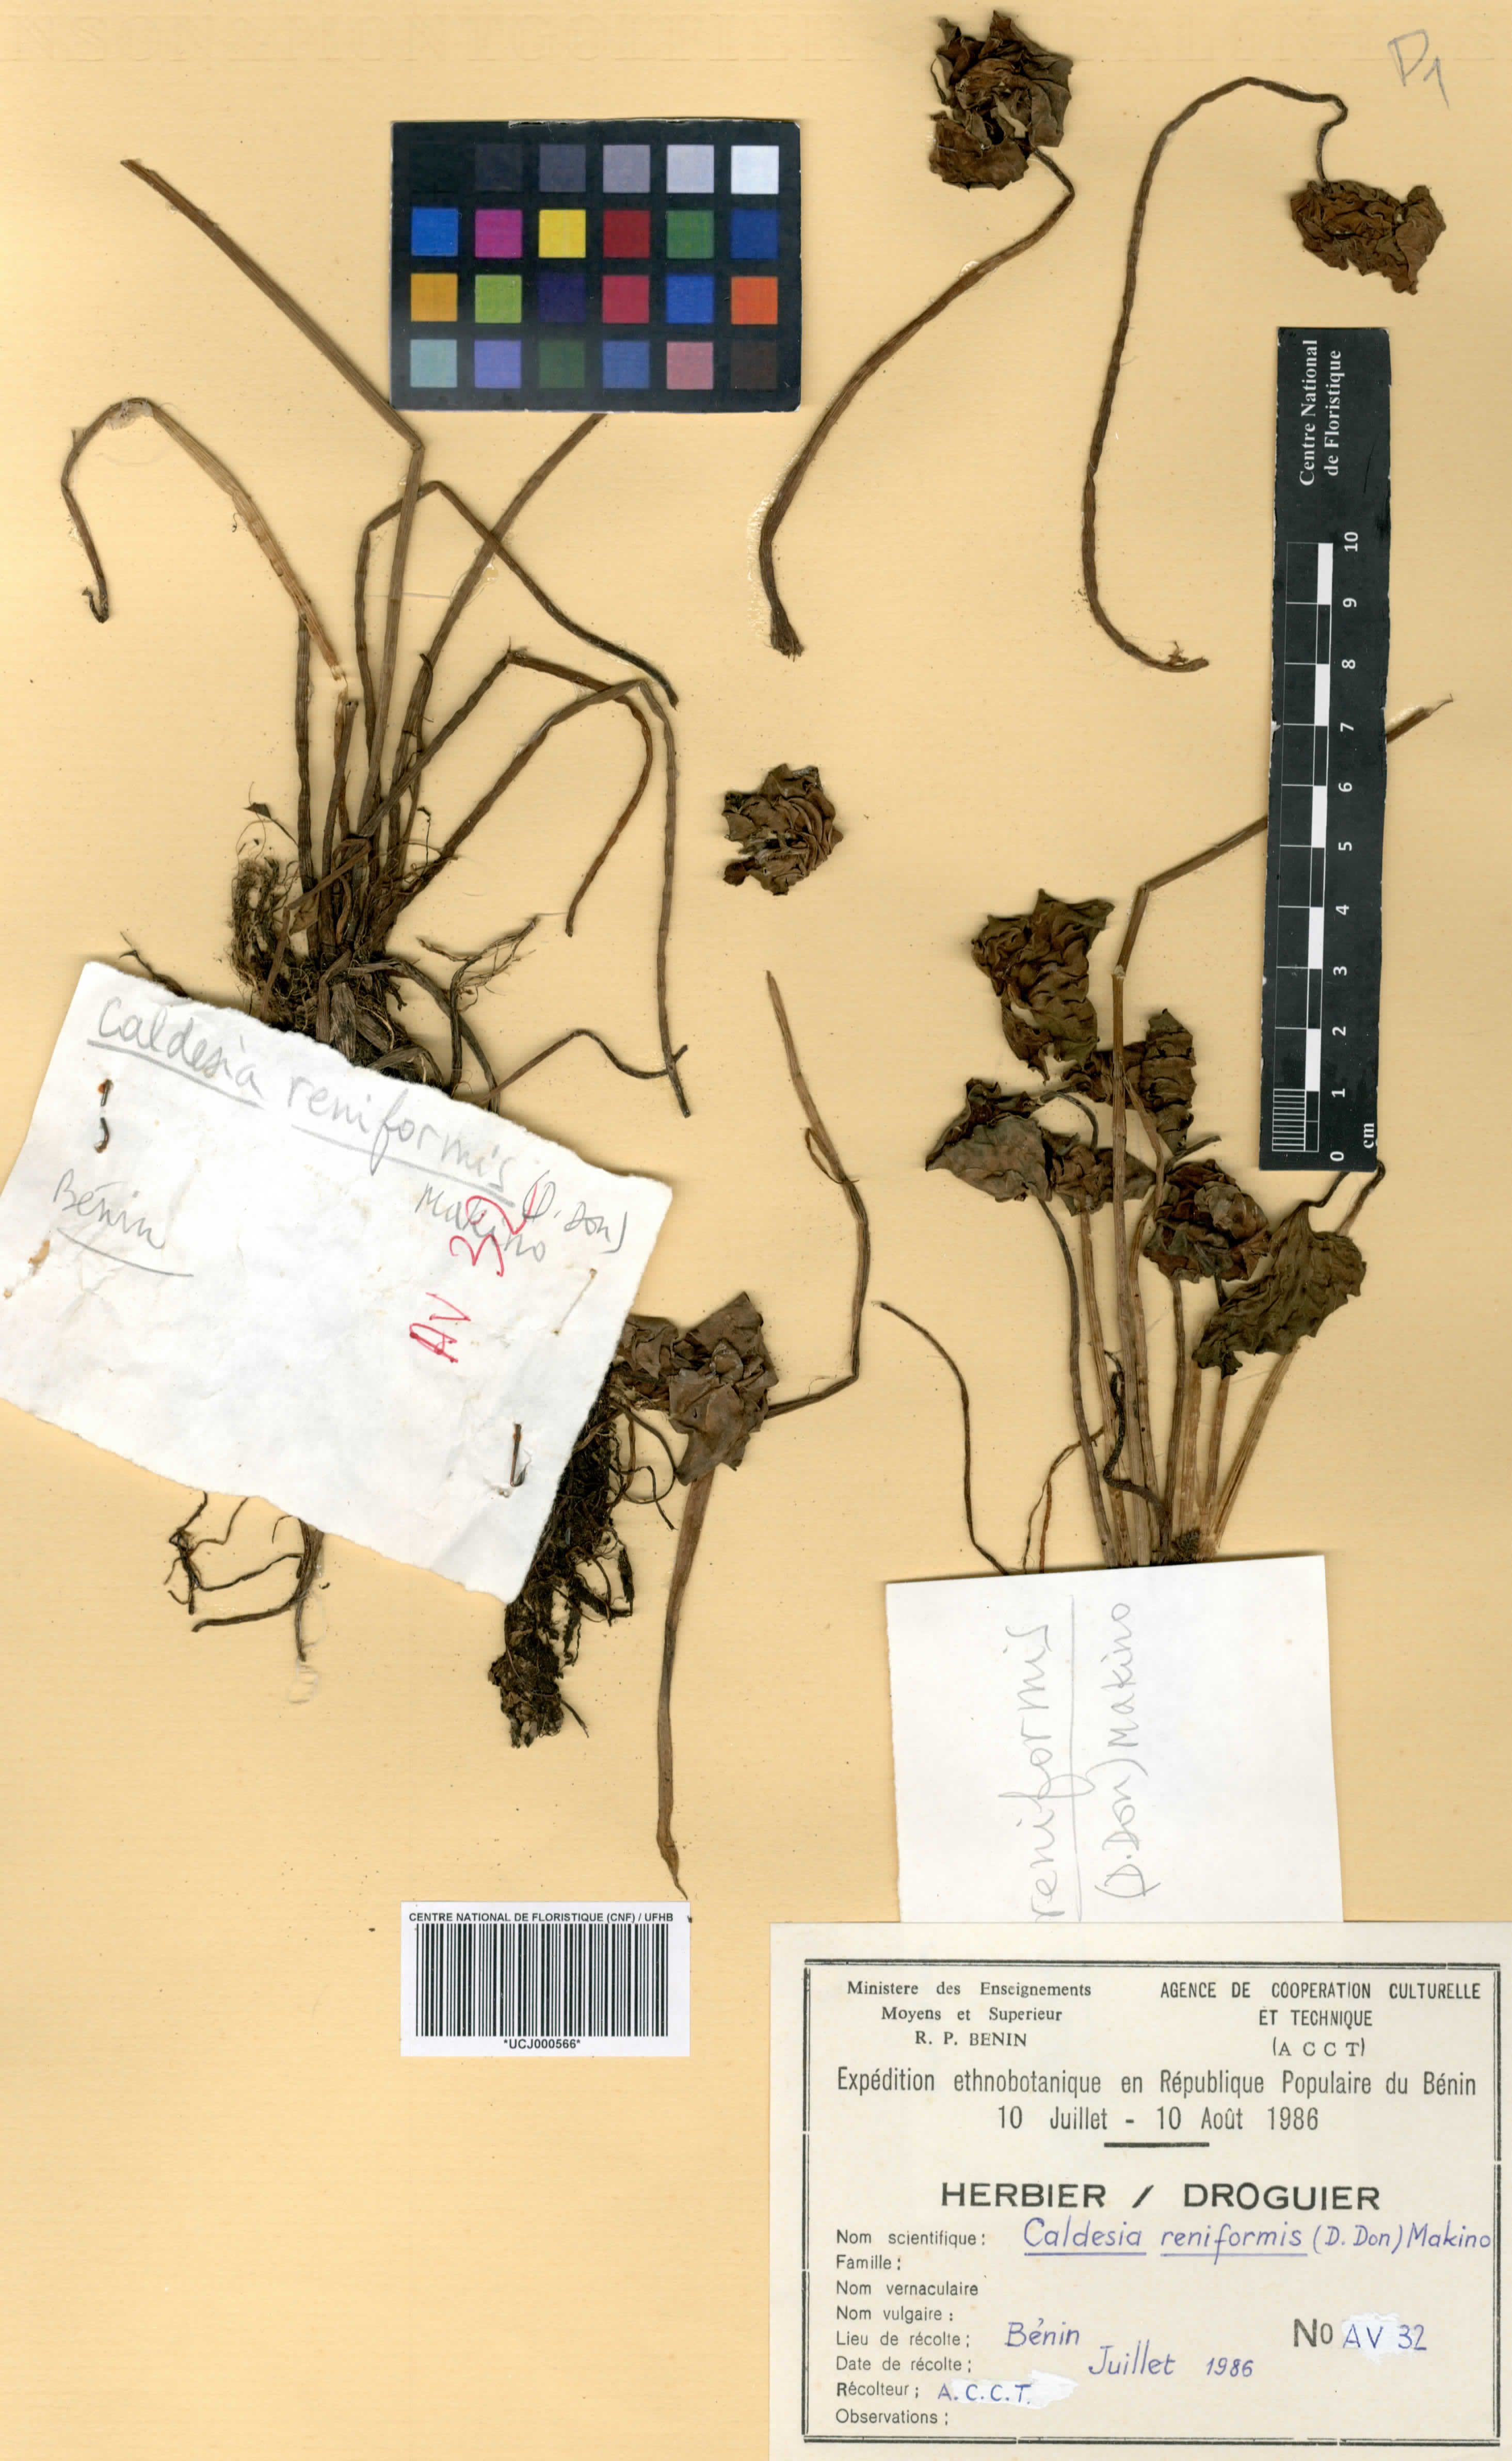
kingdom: Plantae
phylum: Tracheophyta
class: Liliopsida
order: Alismatales
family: Alismataceae
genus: Caldesia
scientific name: Caldesia parnassifolia
